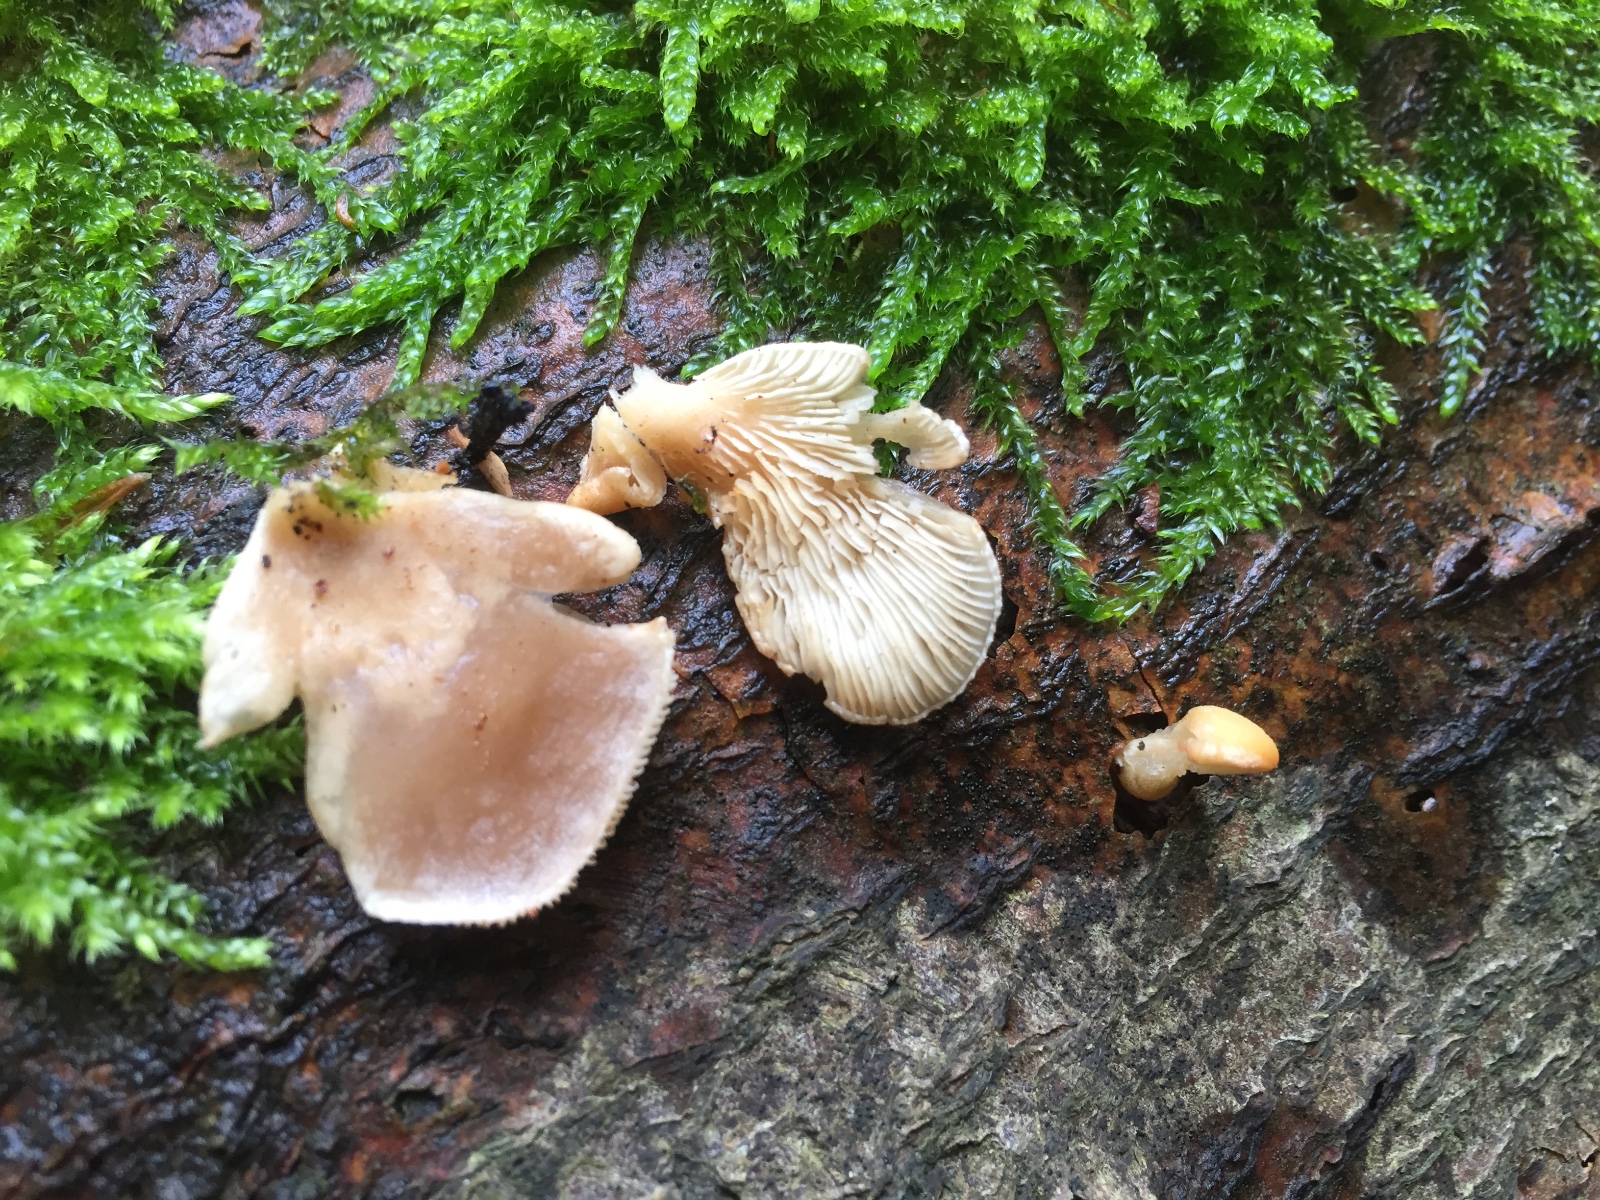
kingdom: Fungi
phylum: Basidiomycota
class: Agaricomycetes
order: Agaricales
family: Pleurotaceae
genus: Hohenbuehelia
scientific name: Hohenbuehelia auriscalpium
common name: spatel-filthat
